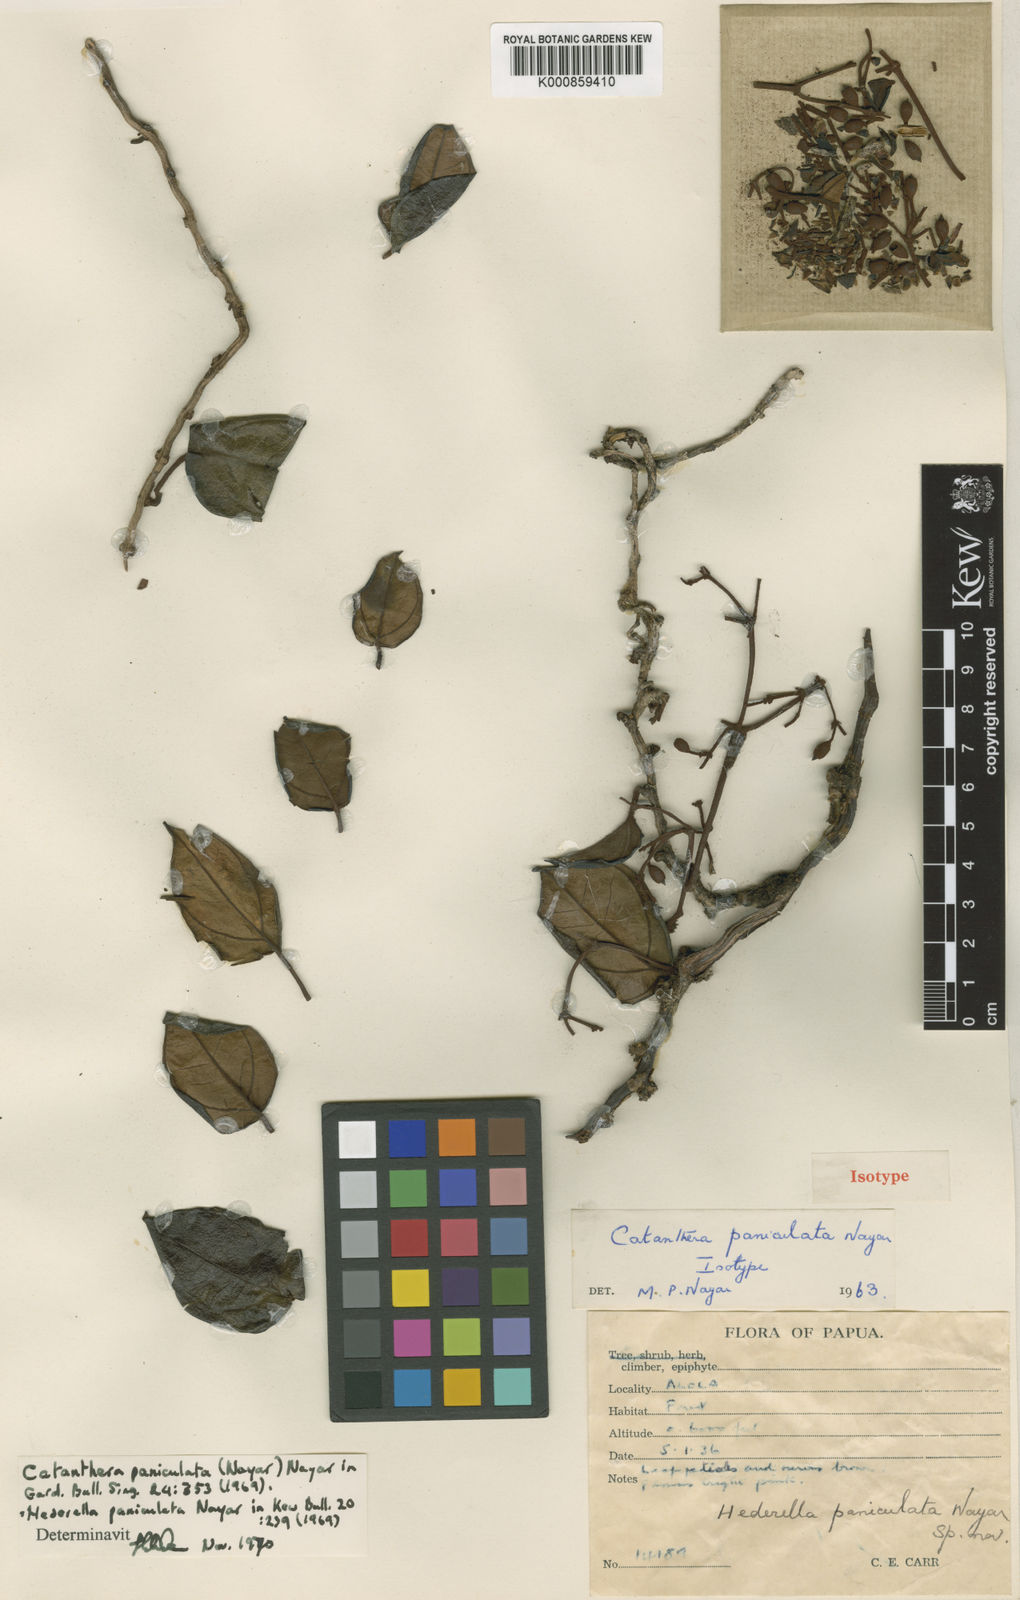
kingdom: Plantae
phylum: Tracheophyta
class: Magnoliopsida
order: Myrtales
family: Melastomataceae
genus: Catanthera
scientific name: Catanthera paniculata
